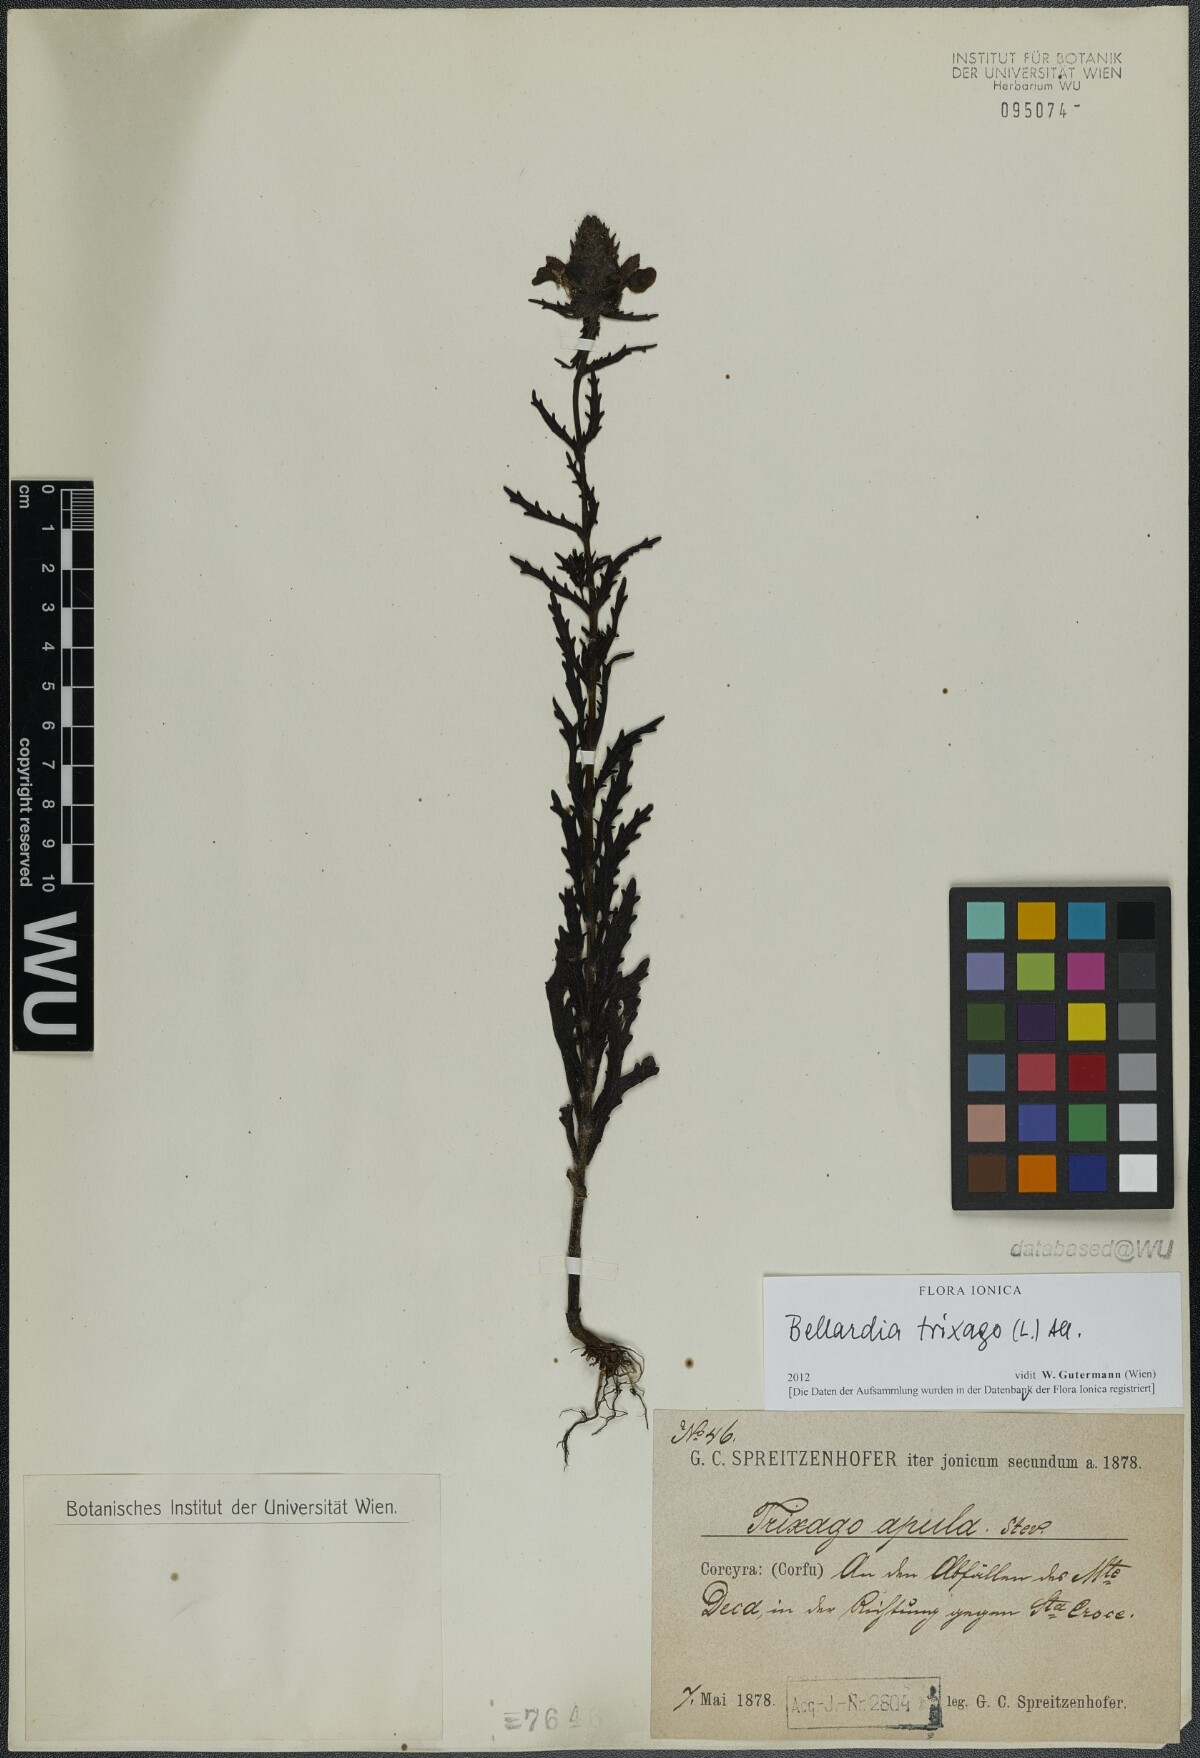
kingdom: Plantae
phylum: Tracheophyta
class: Magnoliopsida
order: Lamiales
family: Orobanchaceae
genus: Bellardia
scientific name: Bellardia trixago
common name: Mediterranean lineseed
